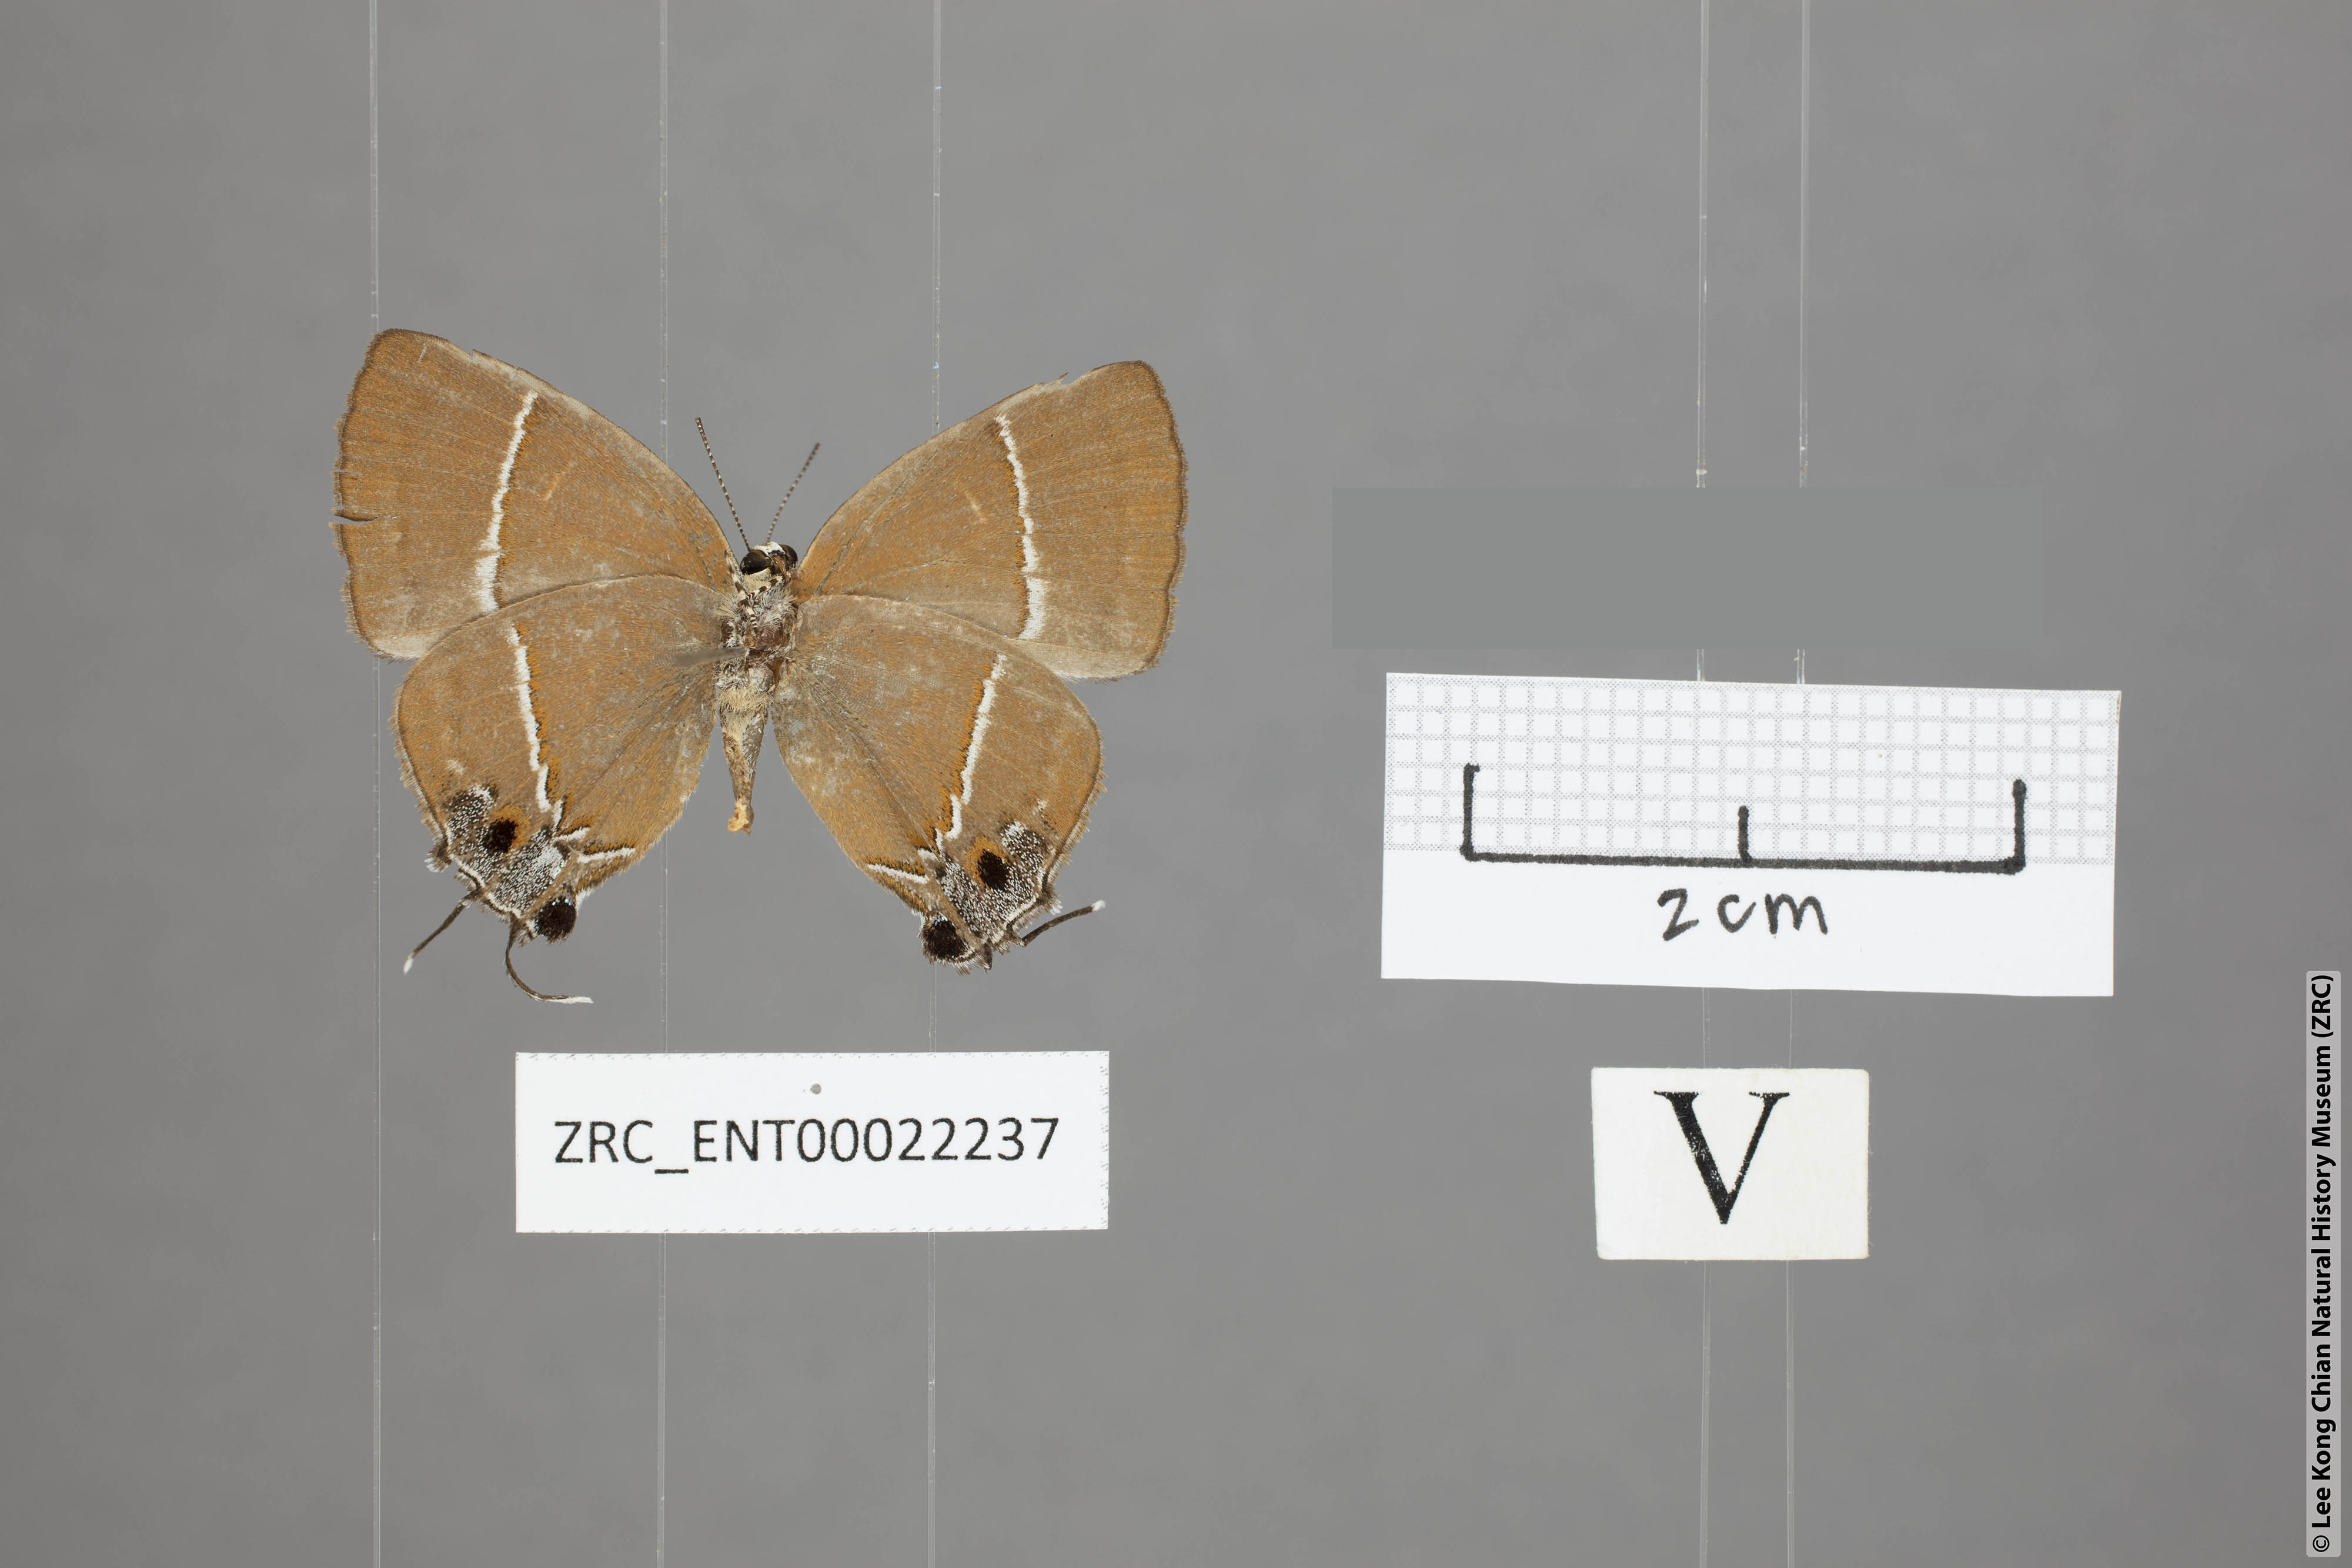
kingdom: Animalia
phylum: Arthropoda
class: Insecta
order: Lepidoptera
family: Lycaenidae
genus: Tajuria
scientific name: Tajuria yajna
